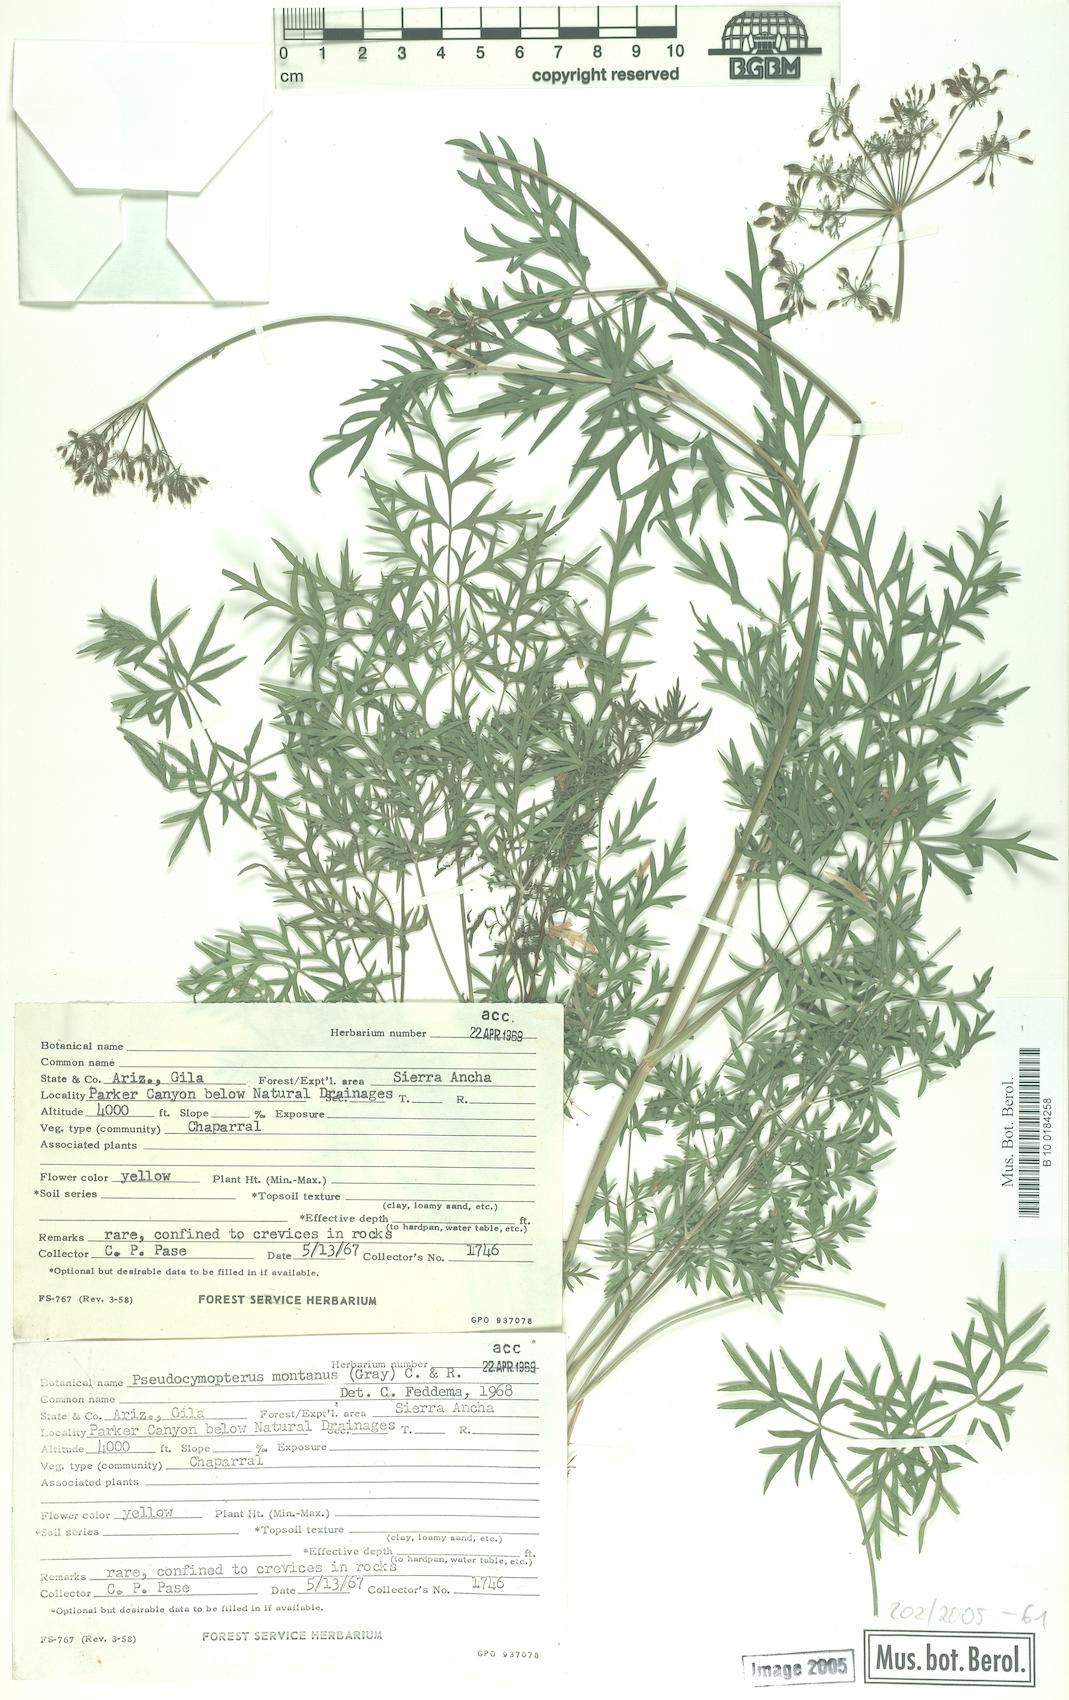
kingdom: Plantae
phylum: Tracheophyta
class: Magnoliopsida
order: Apiales
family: Apiaceae
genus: Cymopterus
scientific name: Cymopterus lemmonii
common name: Lemmon's spring-parsley
